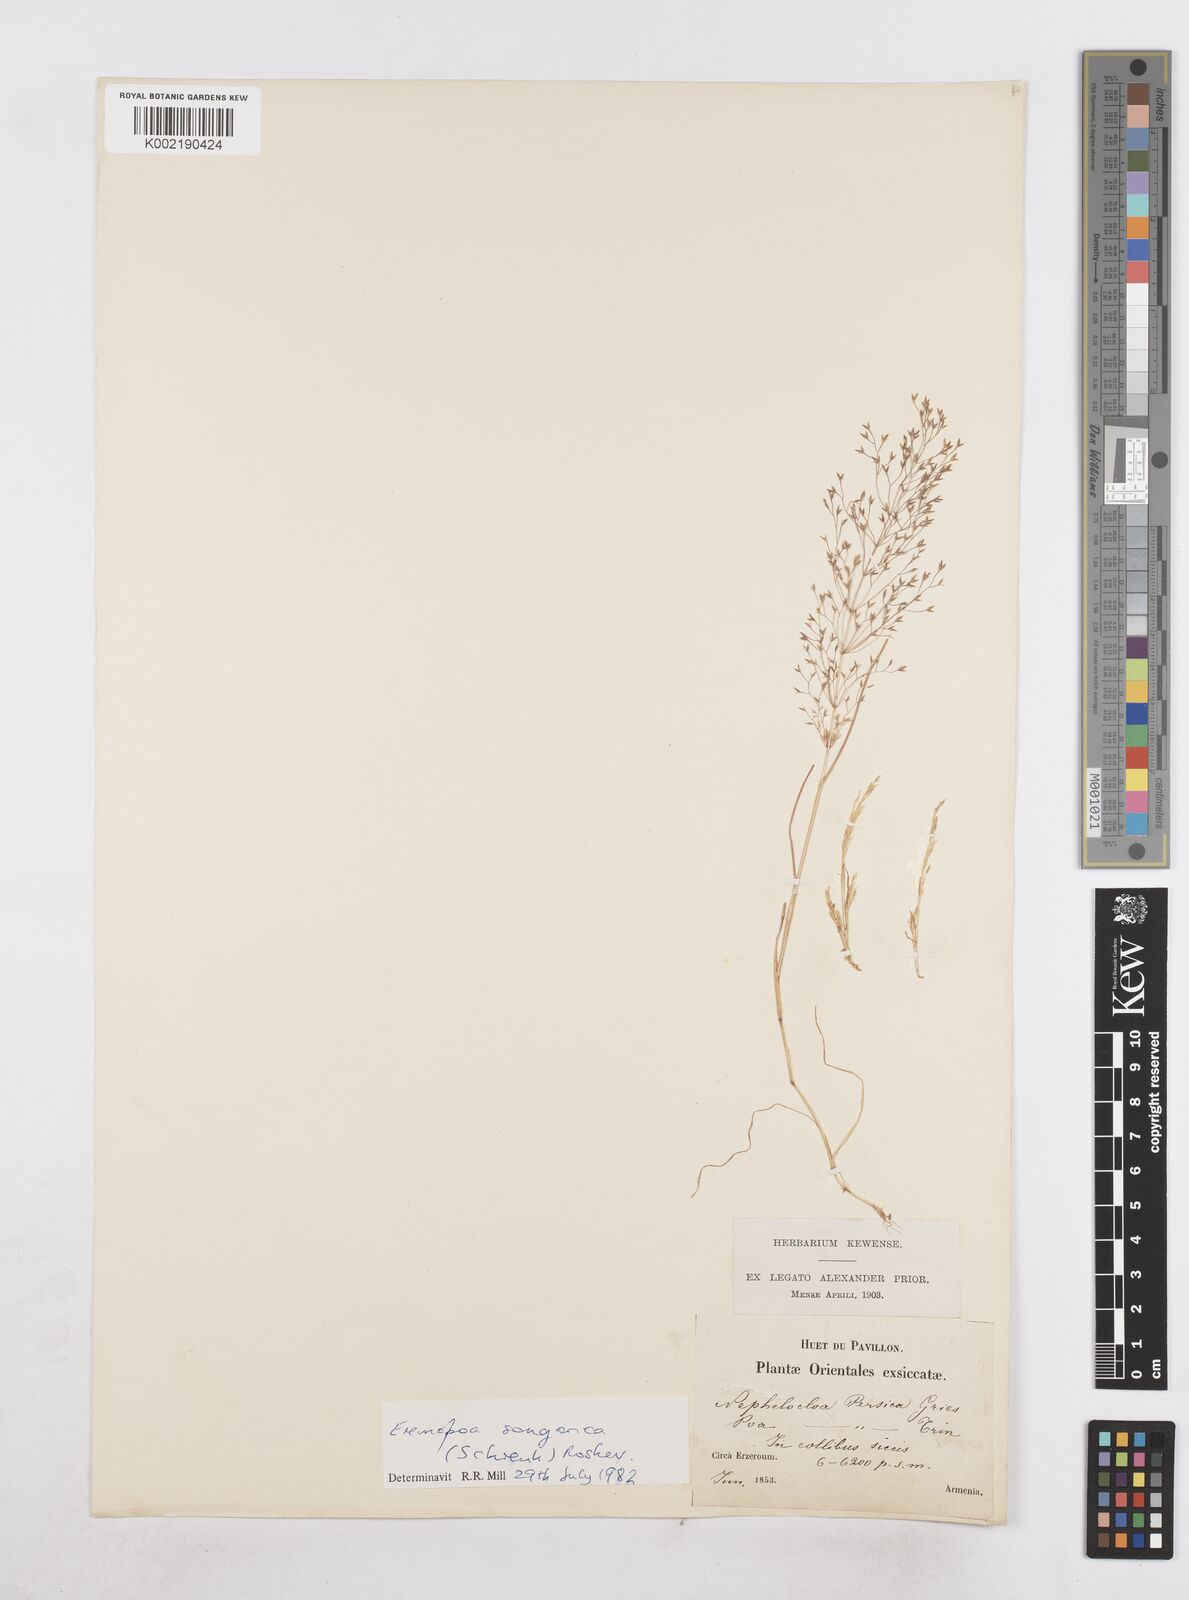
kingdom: Plantae
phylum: Tracheophyta
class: Liliopsida
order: Poales
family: Poaceae
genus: Poa
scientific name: Poa diaphora
